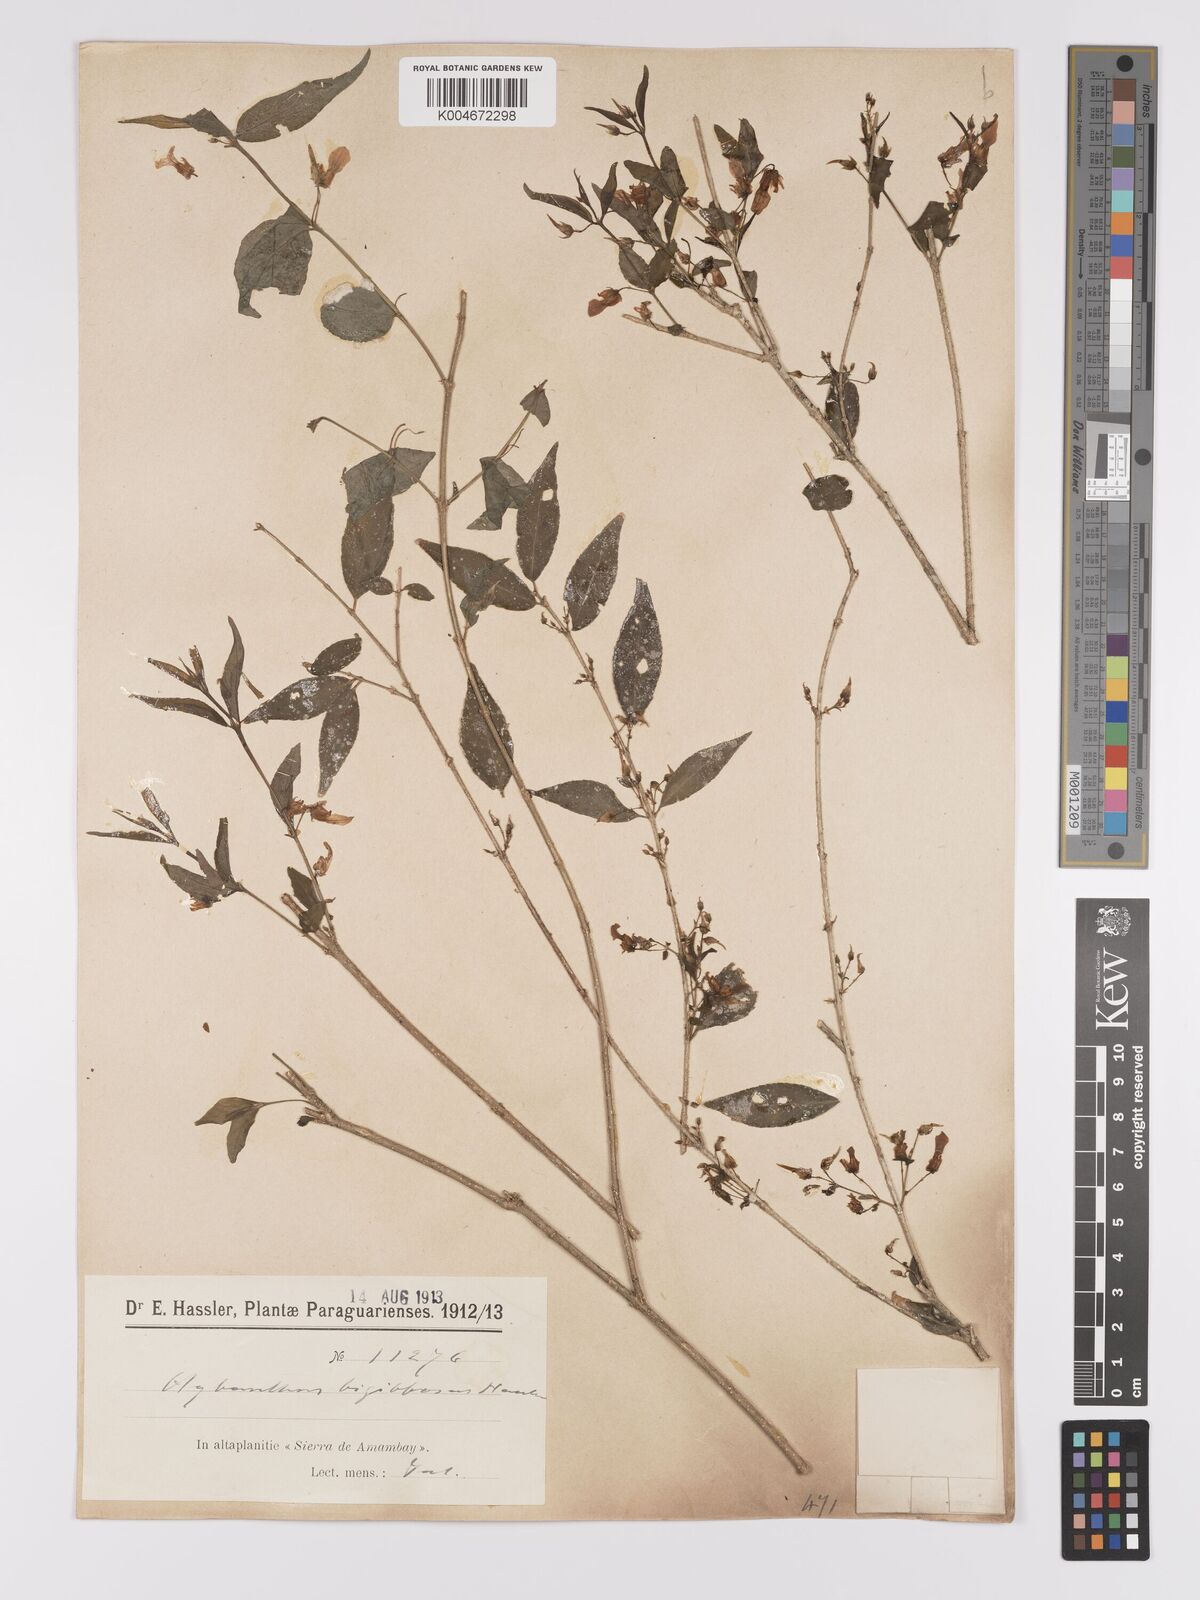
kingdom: Plantae
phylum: Tracheophyta
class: Magnoliopsida
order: Malpighiales
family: Violaceae
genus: Pombalia
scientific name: Pombalia bigibbosa
